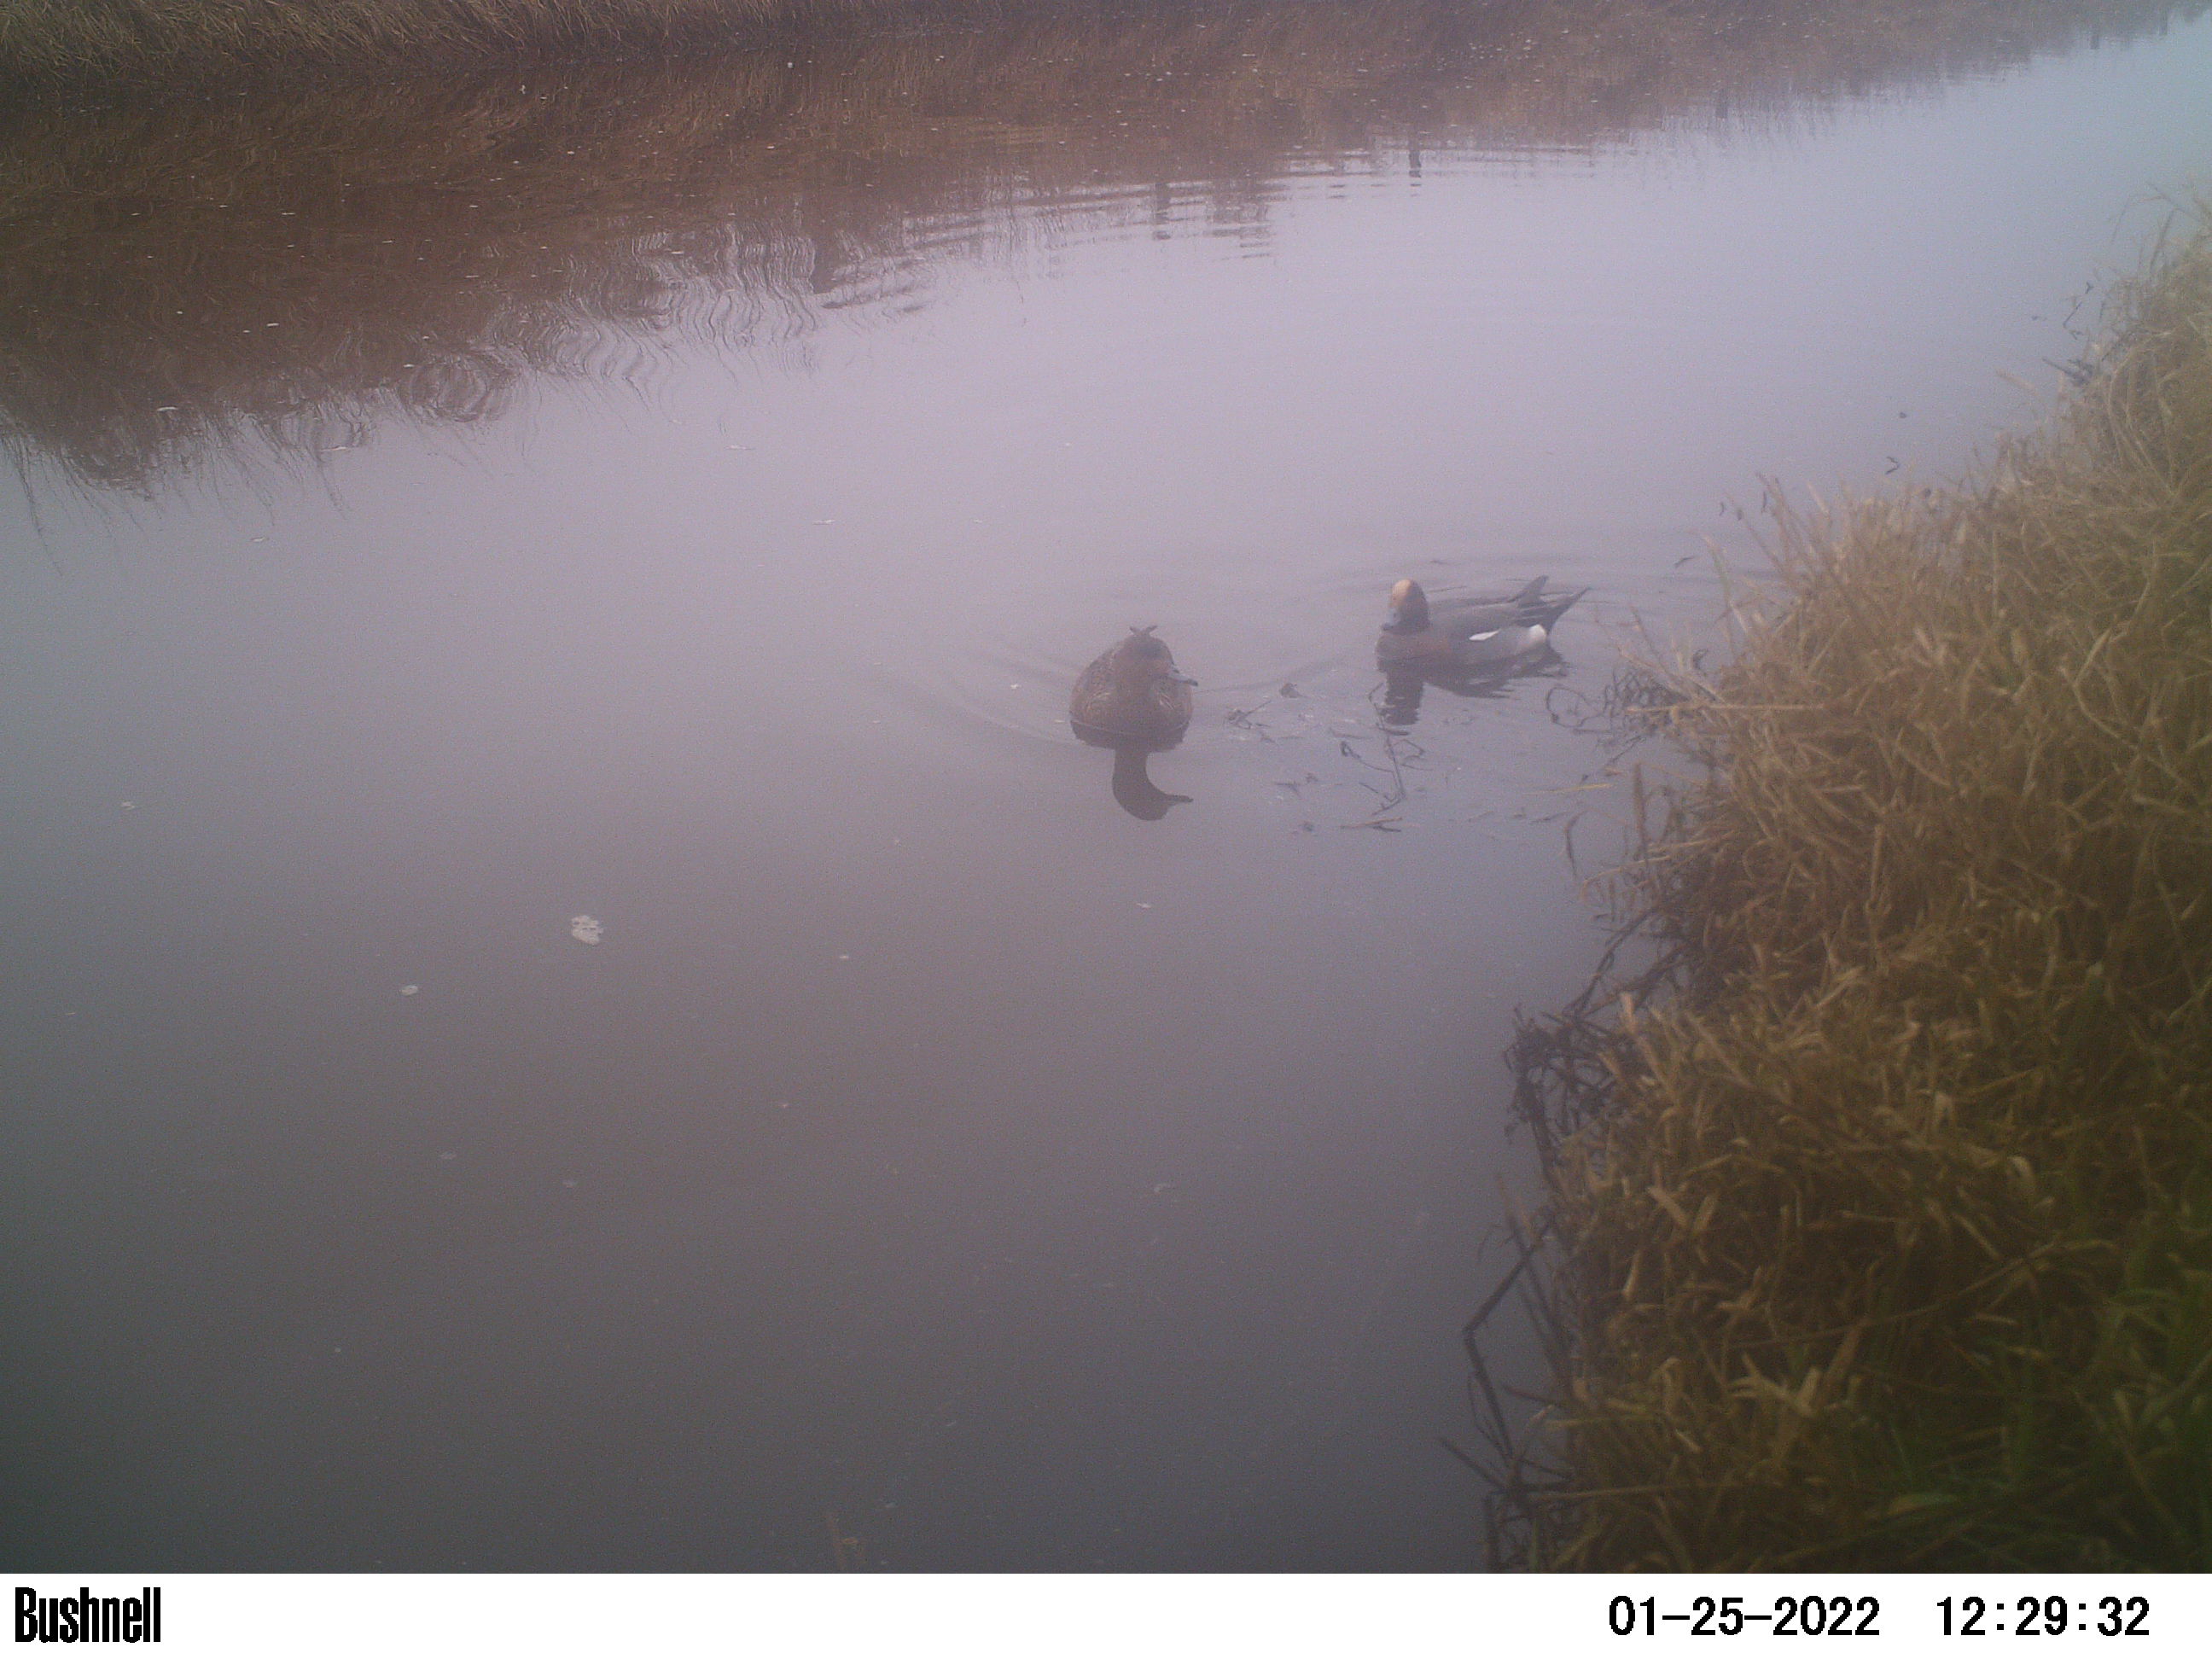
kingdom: Animalia
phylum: Chordata
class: Aves
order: Gruiformes
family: Rallidae
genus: Gallinula
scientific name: Gallinula chloropus
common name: Common moorhen
